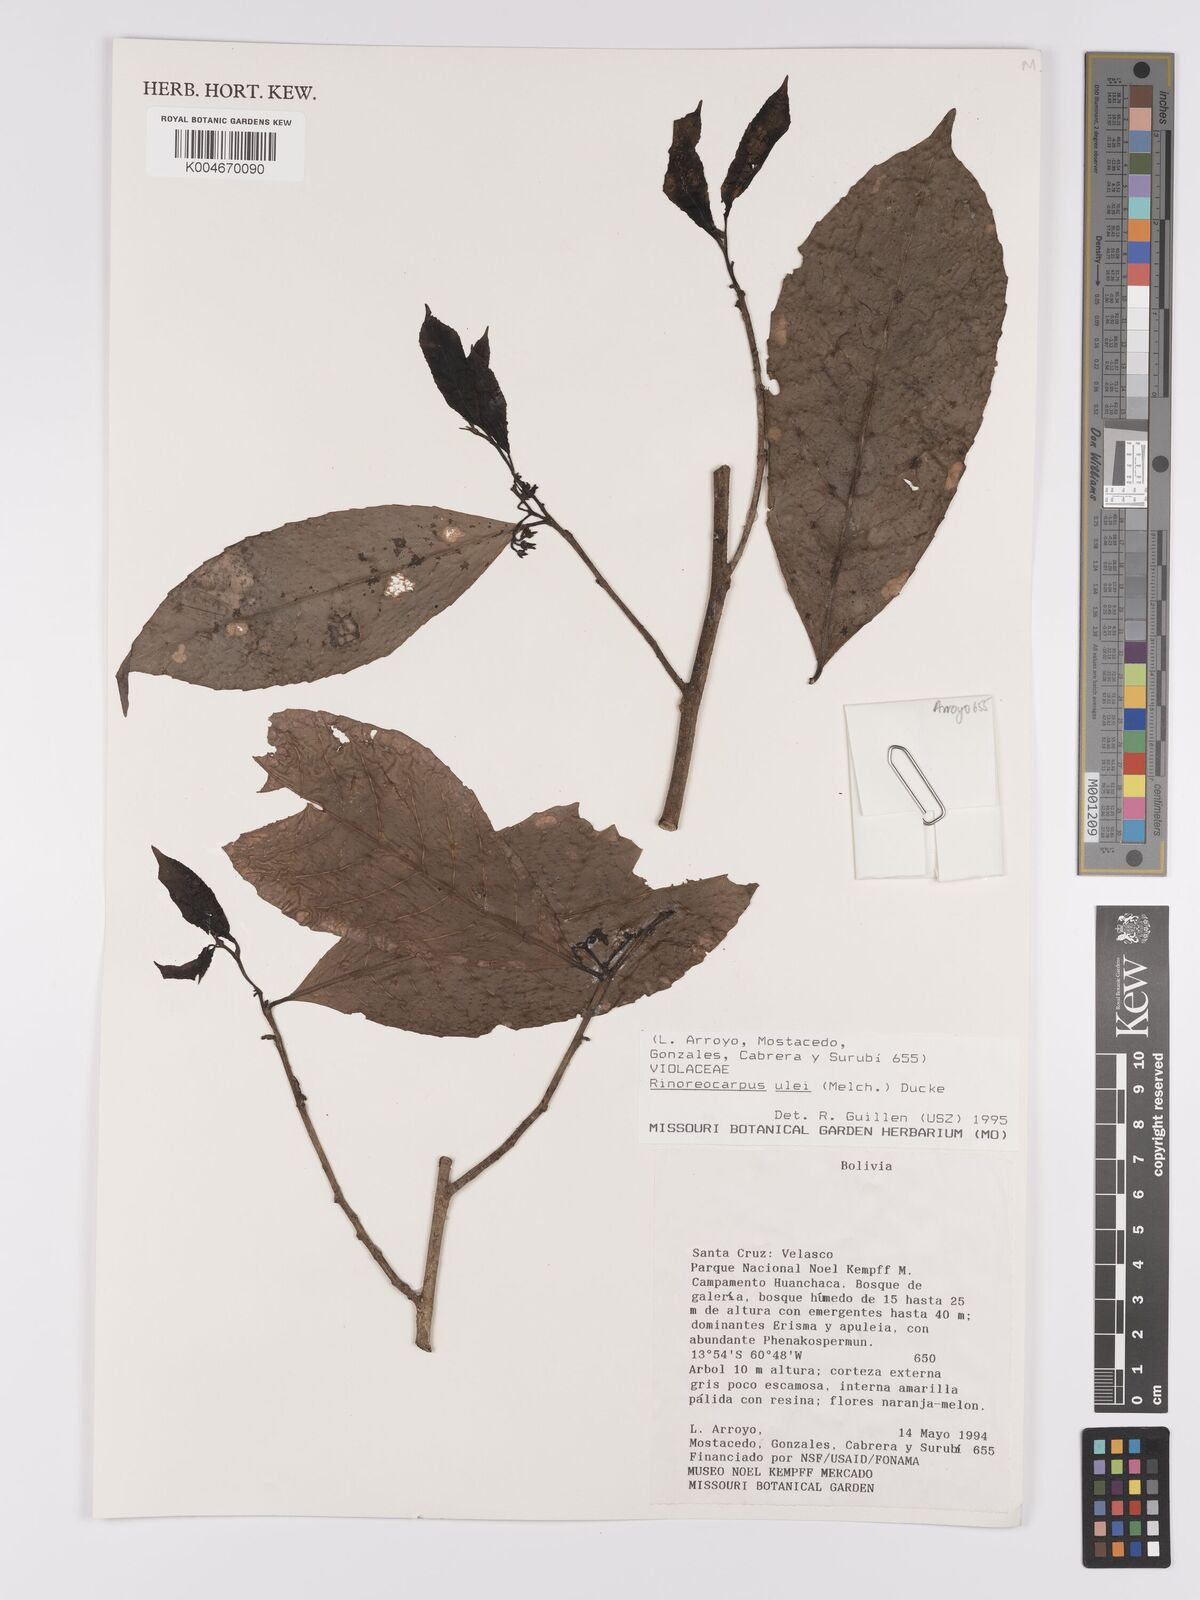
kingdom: Plantae
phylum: Tracheophyta
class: Magnoliopsida
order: Malpighiales
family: Violaceae
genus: Rinoreocarpus
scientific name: Rinoreocarpus ulei
